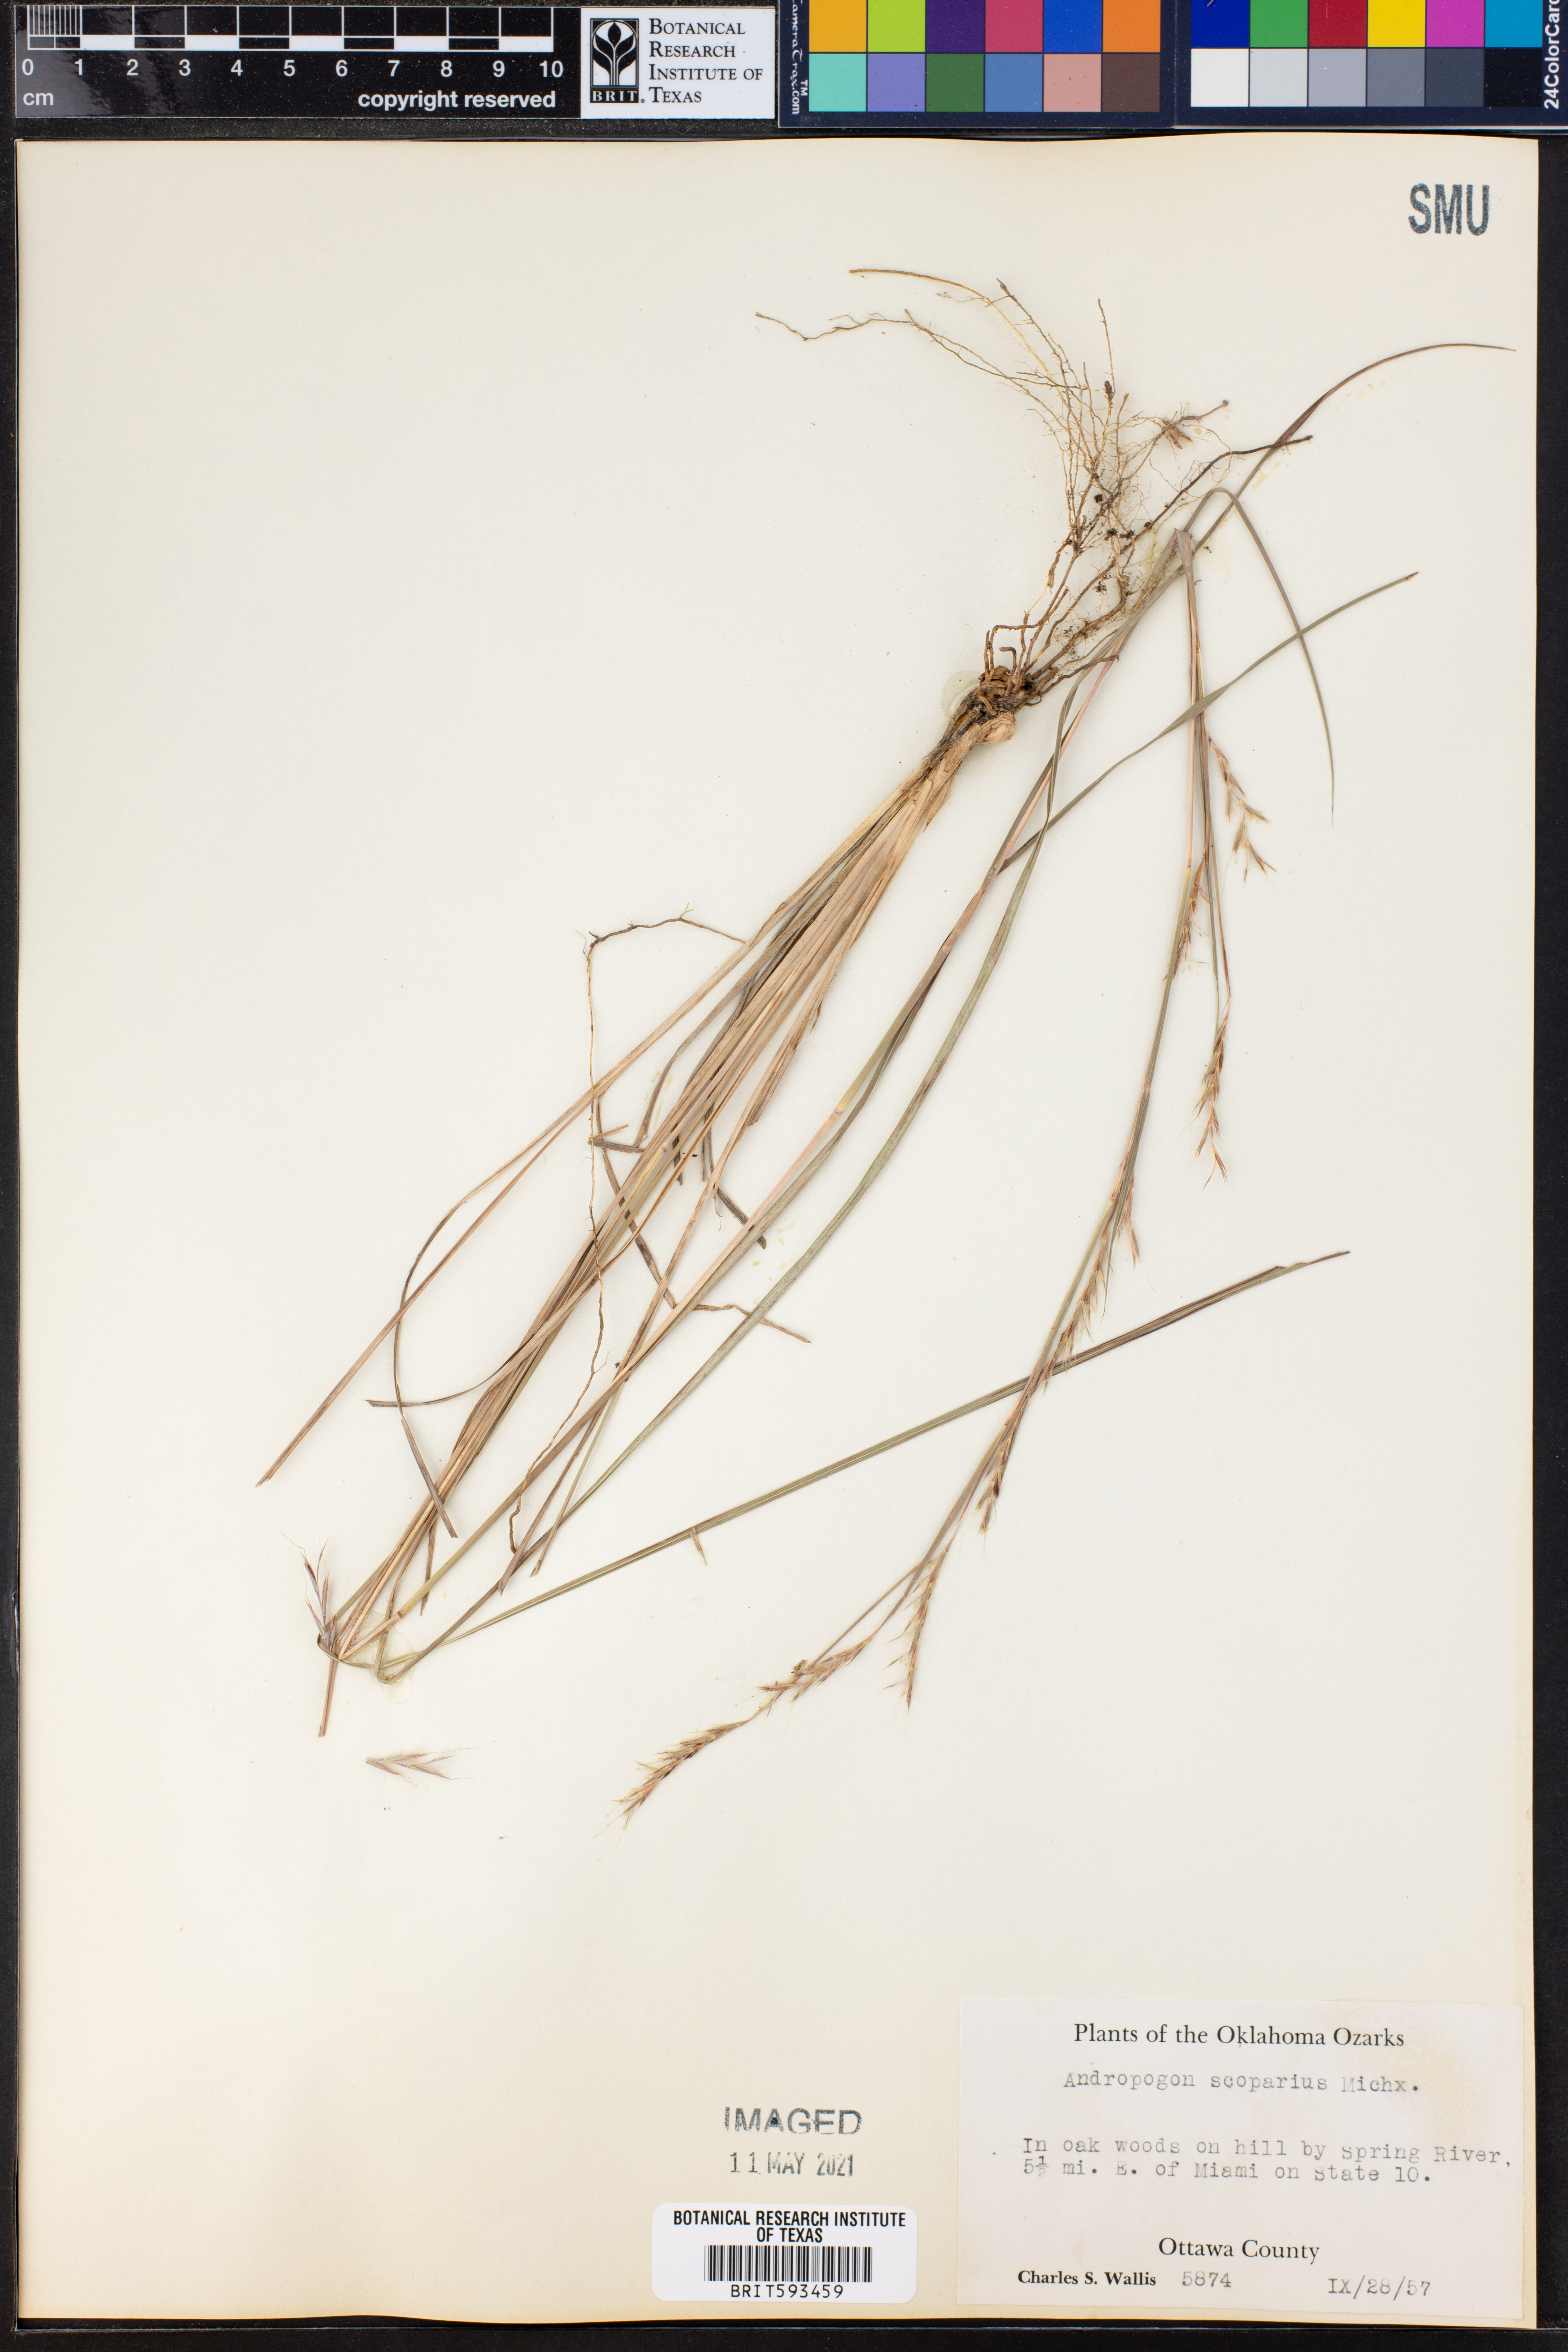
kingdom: Plantae
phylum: Tracheophyta
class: Liliopsida
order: Poales
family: Poaceae
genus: Schizachyrium
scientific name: Schizachyrium scoparium
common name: Little bluestem
